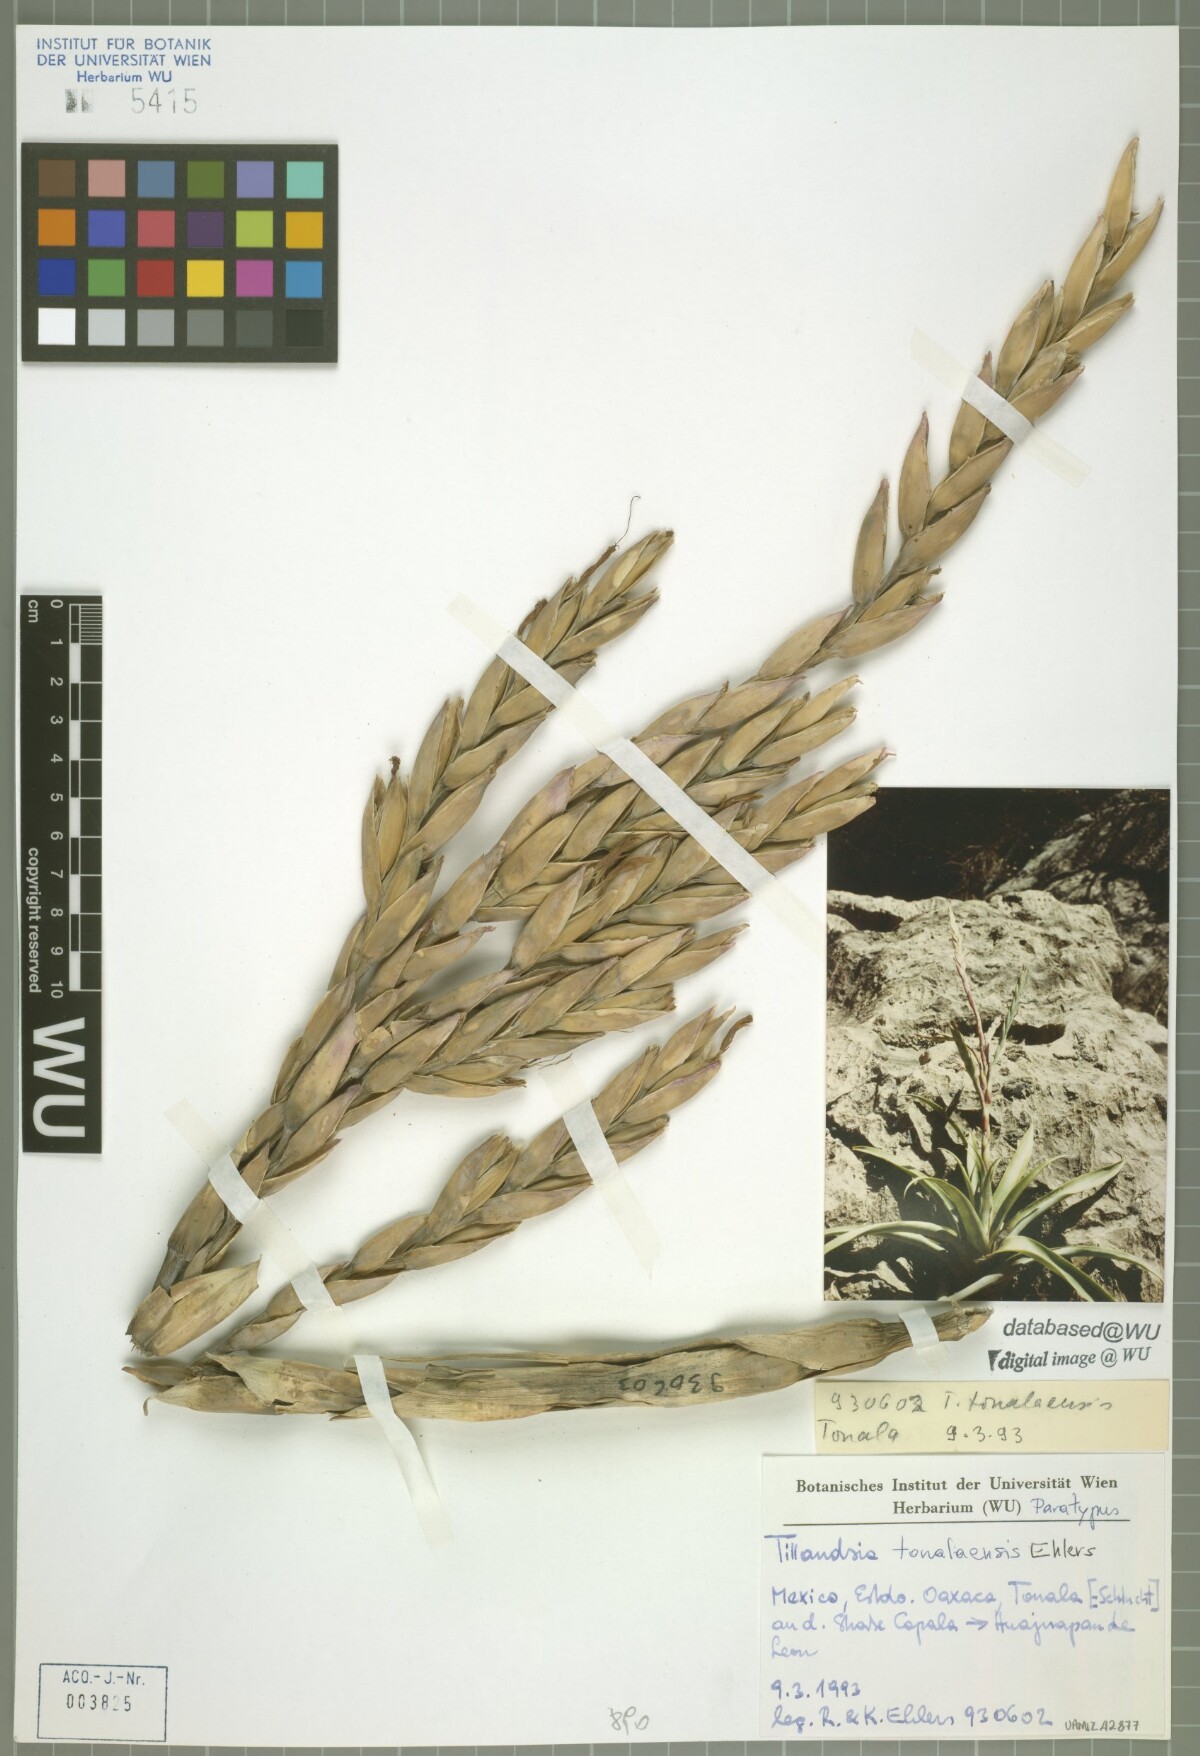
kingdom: Plantae
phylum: Tracheophyta
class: Liliopsida
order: Poales
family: Bromeliaceae
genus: Tillandsia
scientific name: Tillandsia tonalaensis
